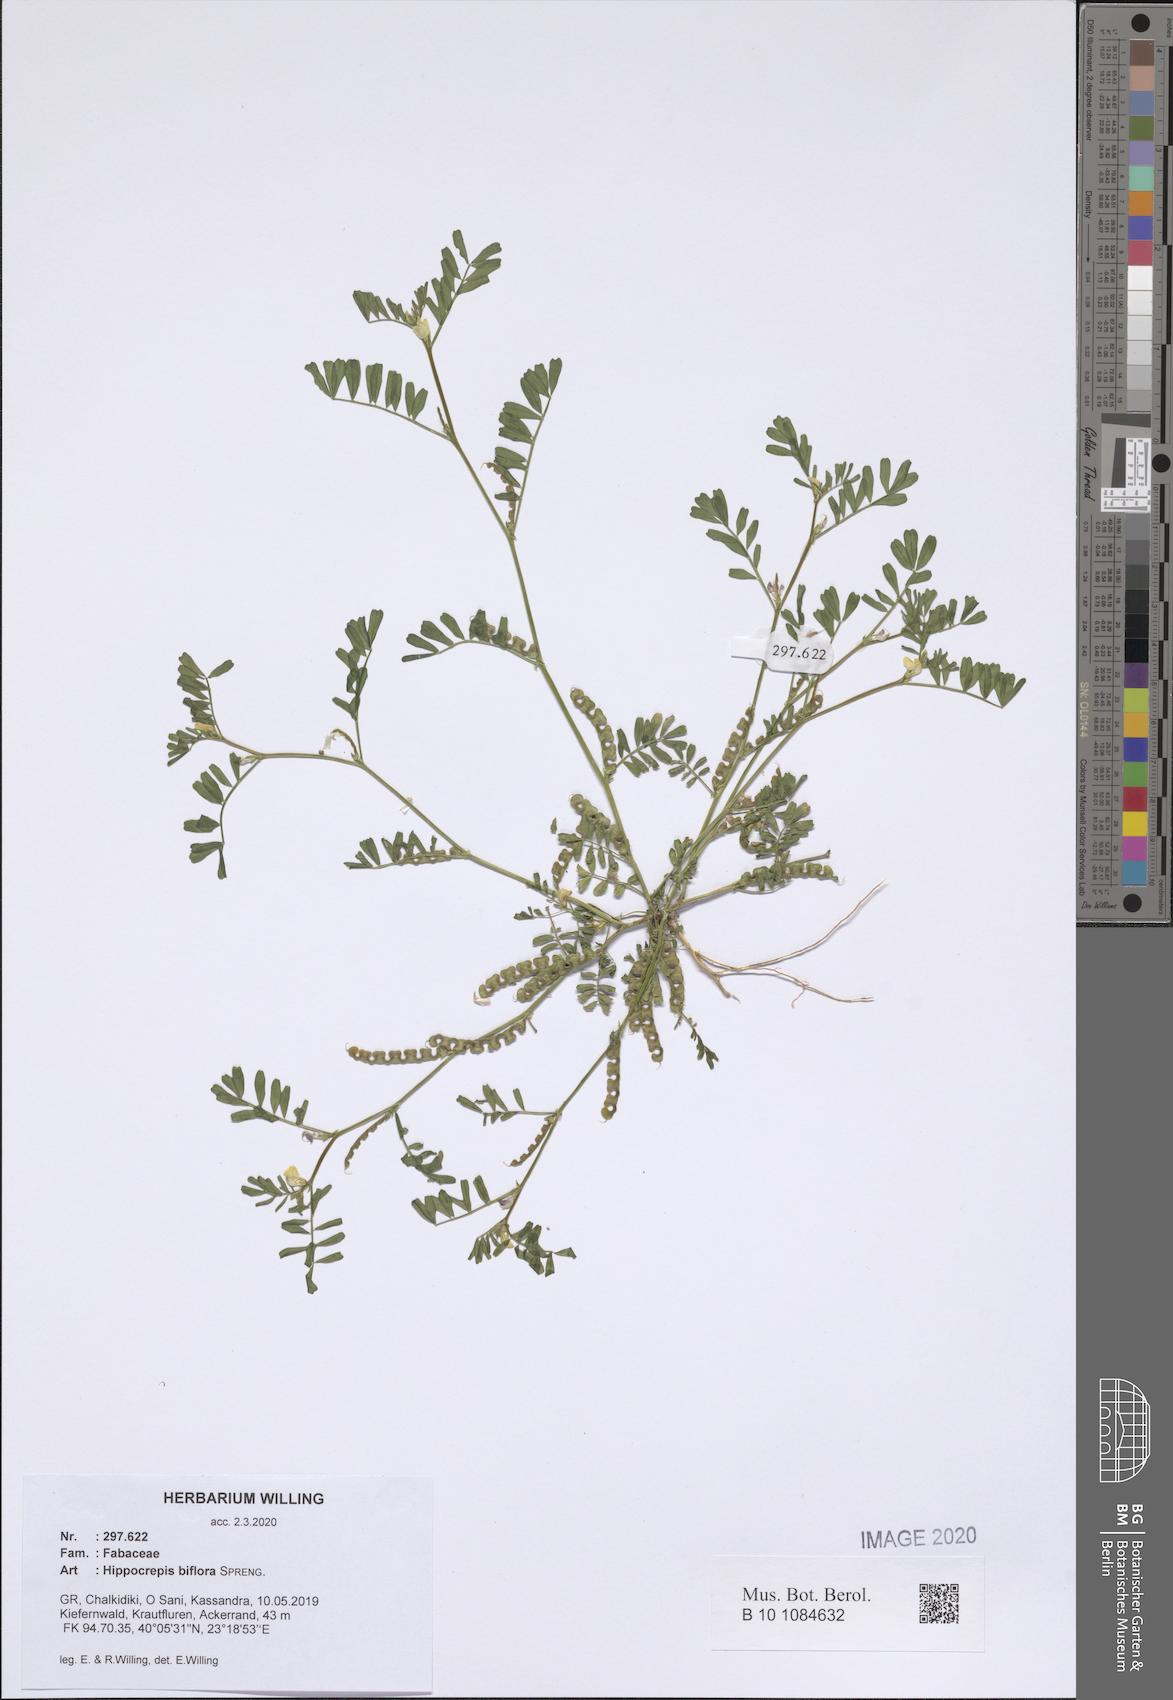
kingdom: Plantae
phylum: Tracheophyta
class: Magnoliopsida
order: Fabales
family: Fabaceae
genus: Hippocrepis
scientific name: Hippocrepis biflora
